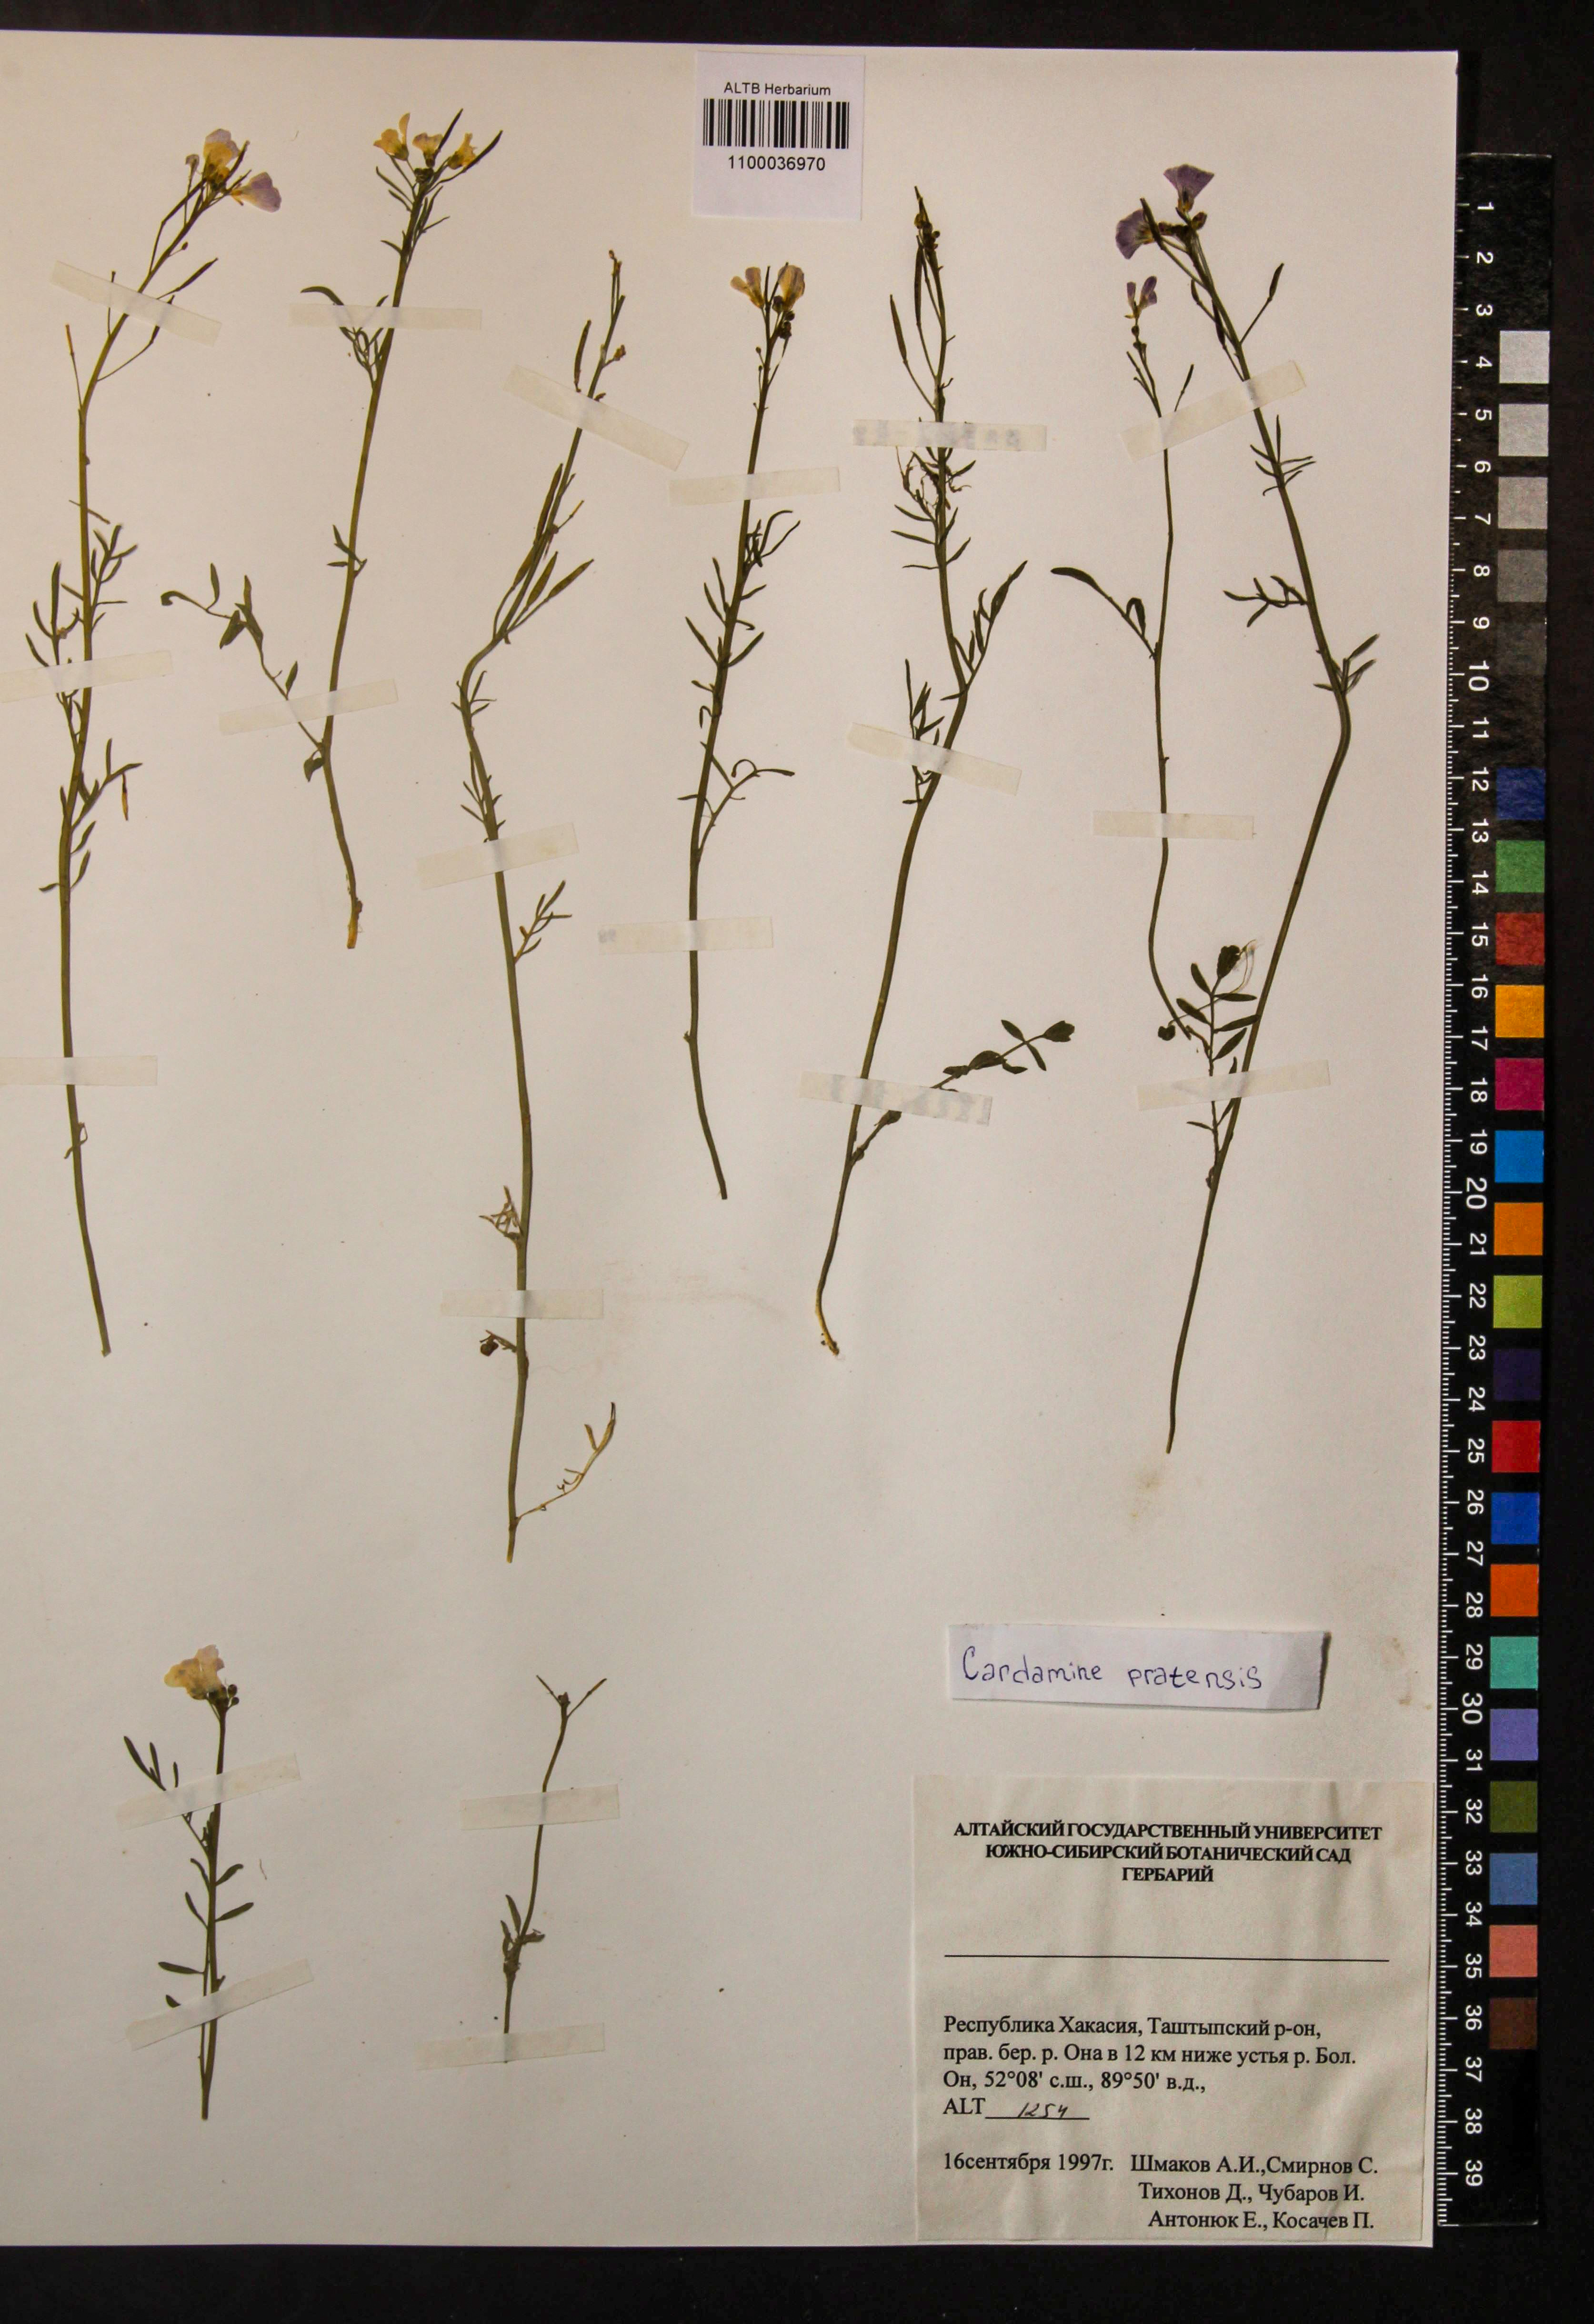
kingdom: Plantae
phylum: Tracheophyta
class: Magnoliopsida
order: Brassicales
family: Brassicaceae
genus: Cardamine
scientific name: Cardamine pratensis
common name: Cuckoo flower
